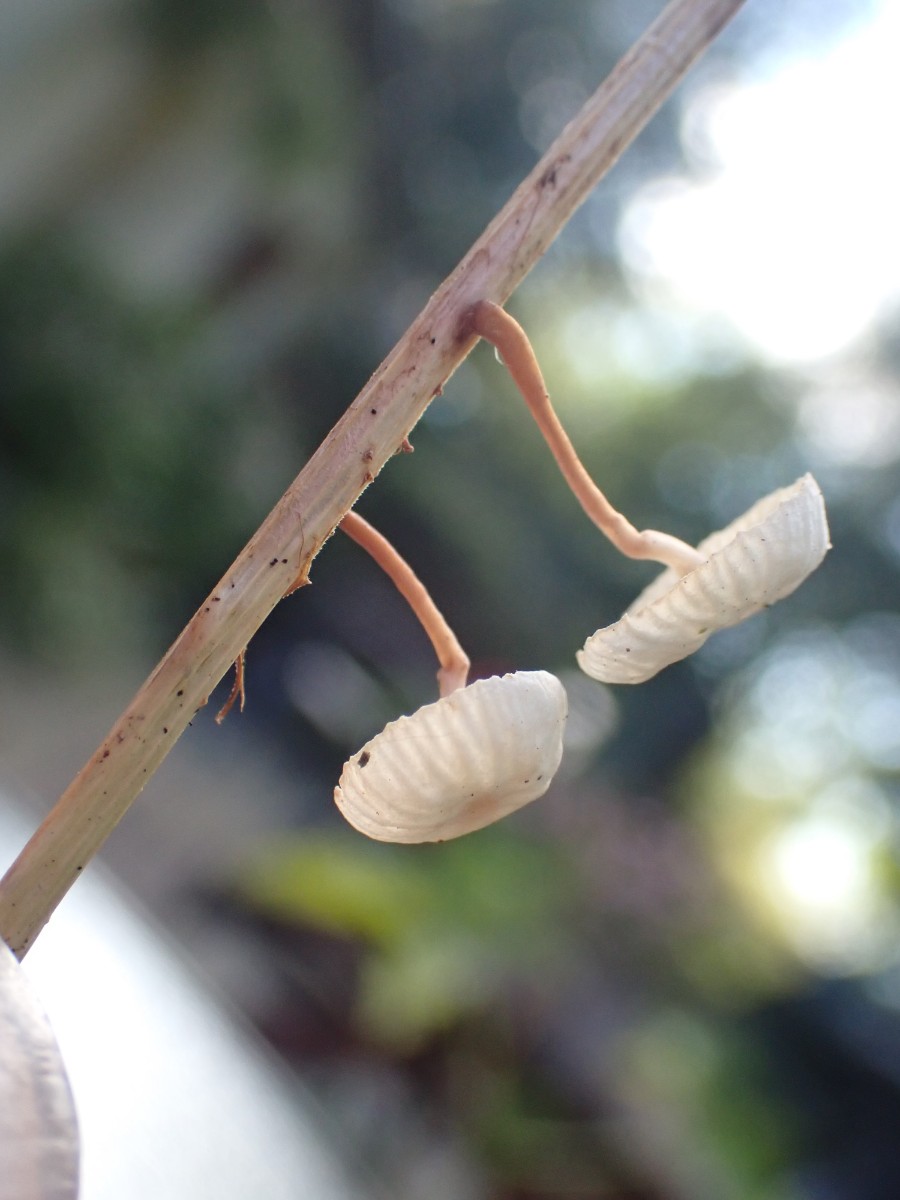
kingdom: Fungi
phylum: Basidiomycota
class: Agaricomycetes
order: Agaricales
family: Omphalotaceae
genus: Collybiopsis
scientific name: Collybiopsis vaillantii
